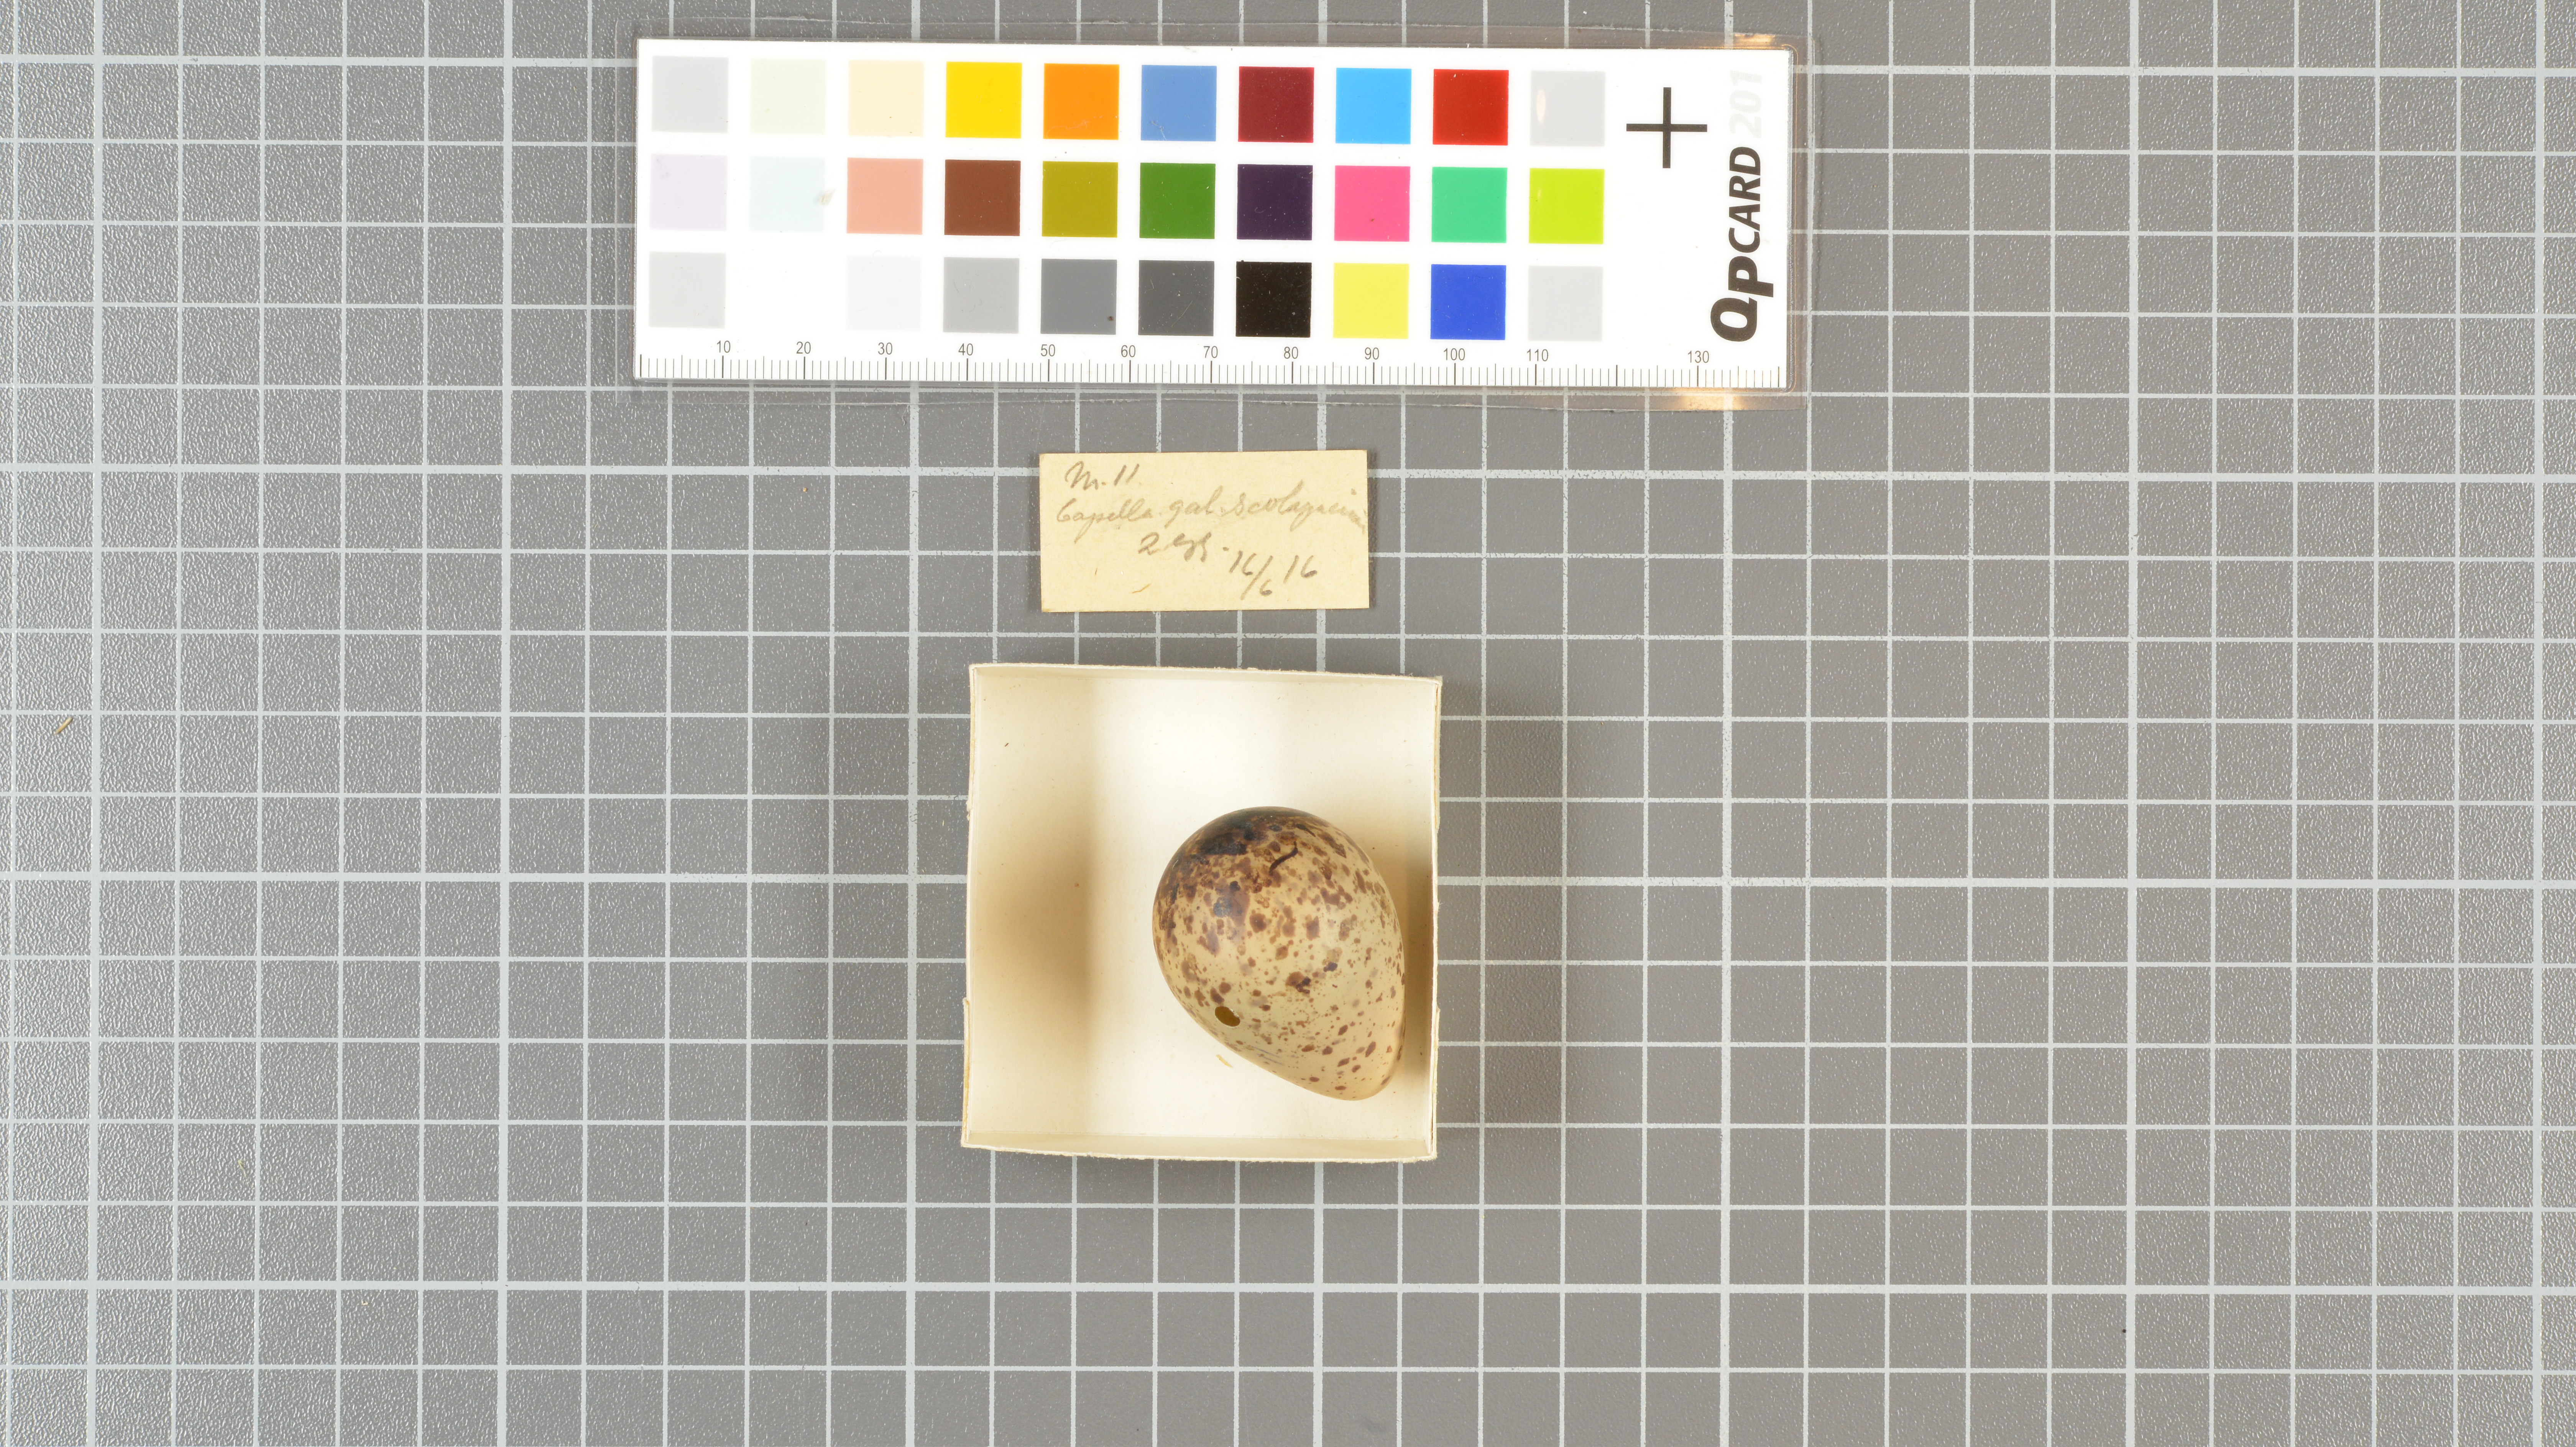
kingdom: Animalia
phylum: Chordata
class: Aves
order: Charadriiformes
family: Scolopacidae
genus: Gallinago
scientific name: Gallinago gallinago
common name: Common snipe
